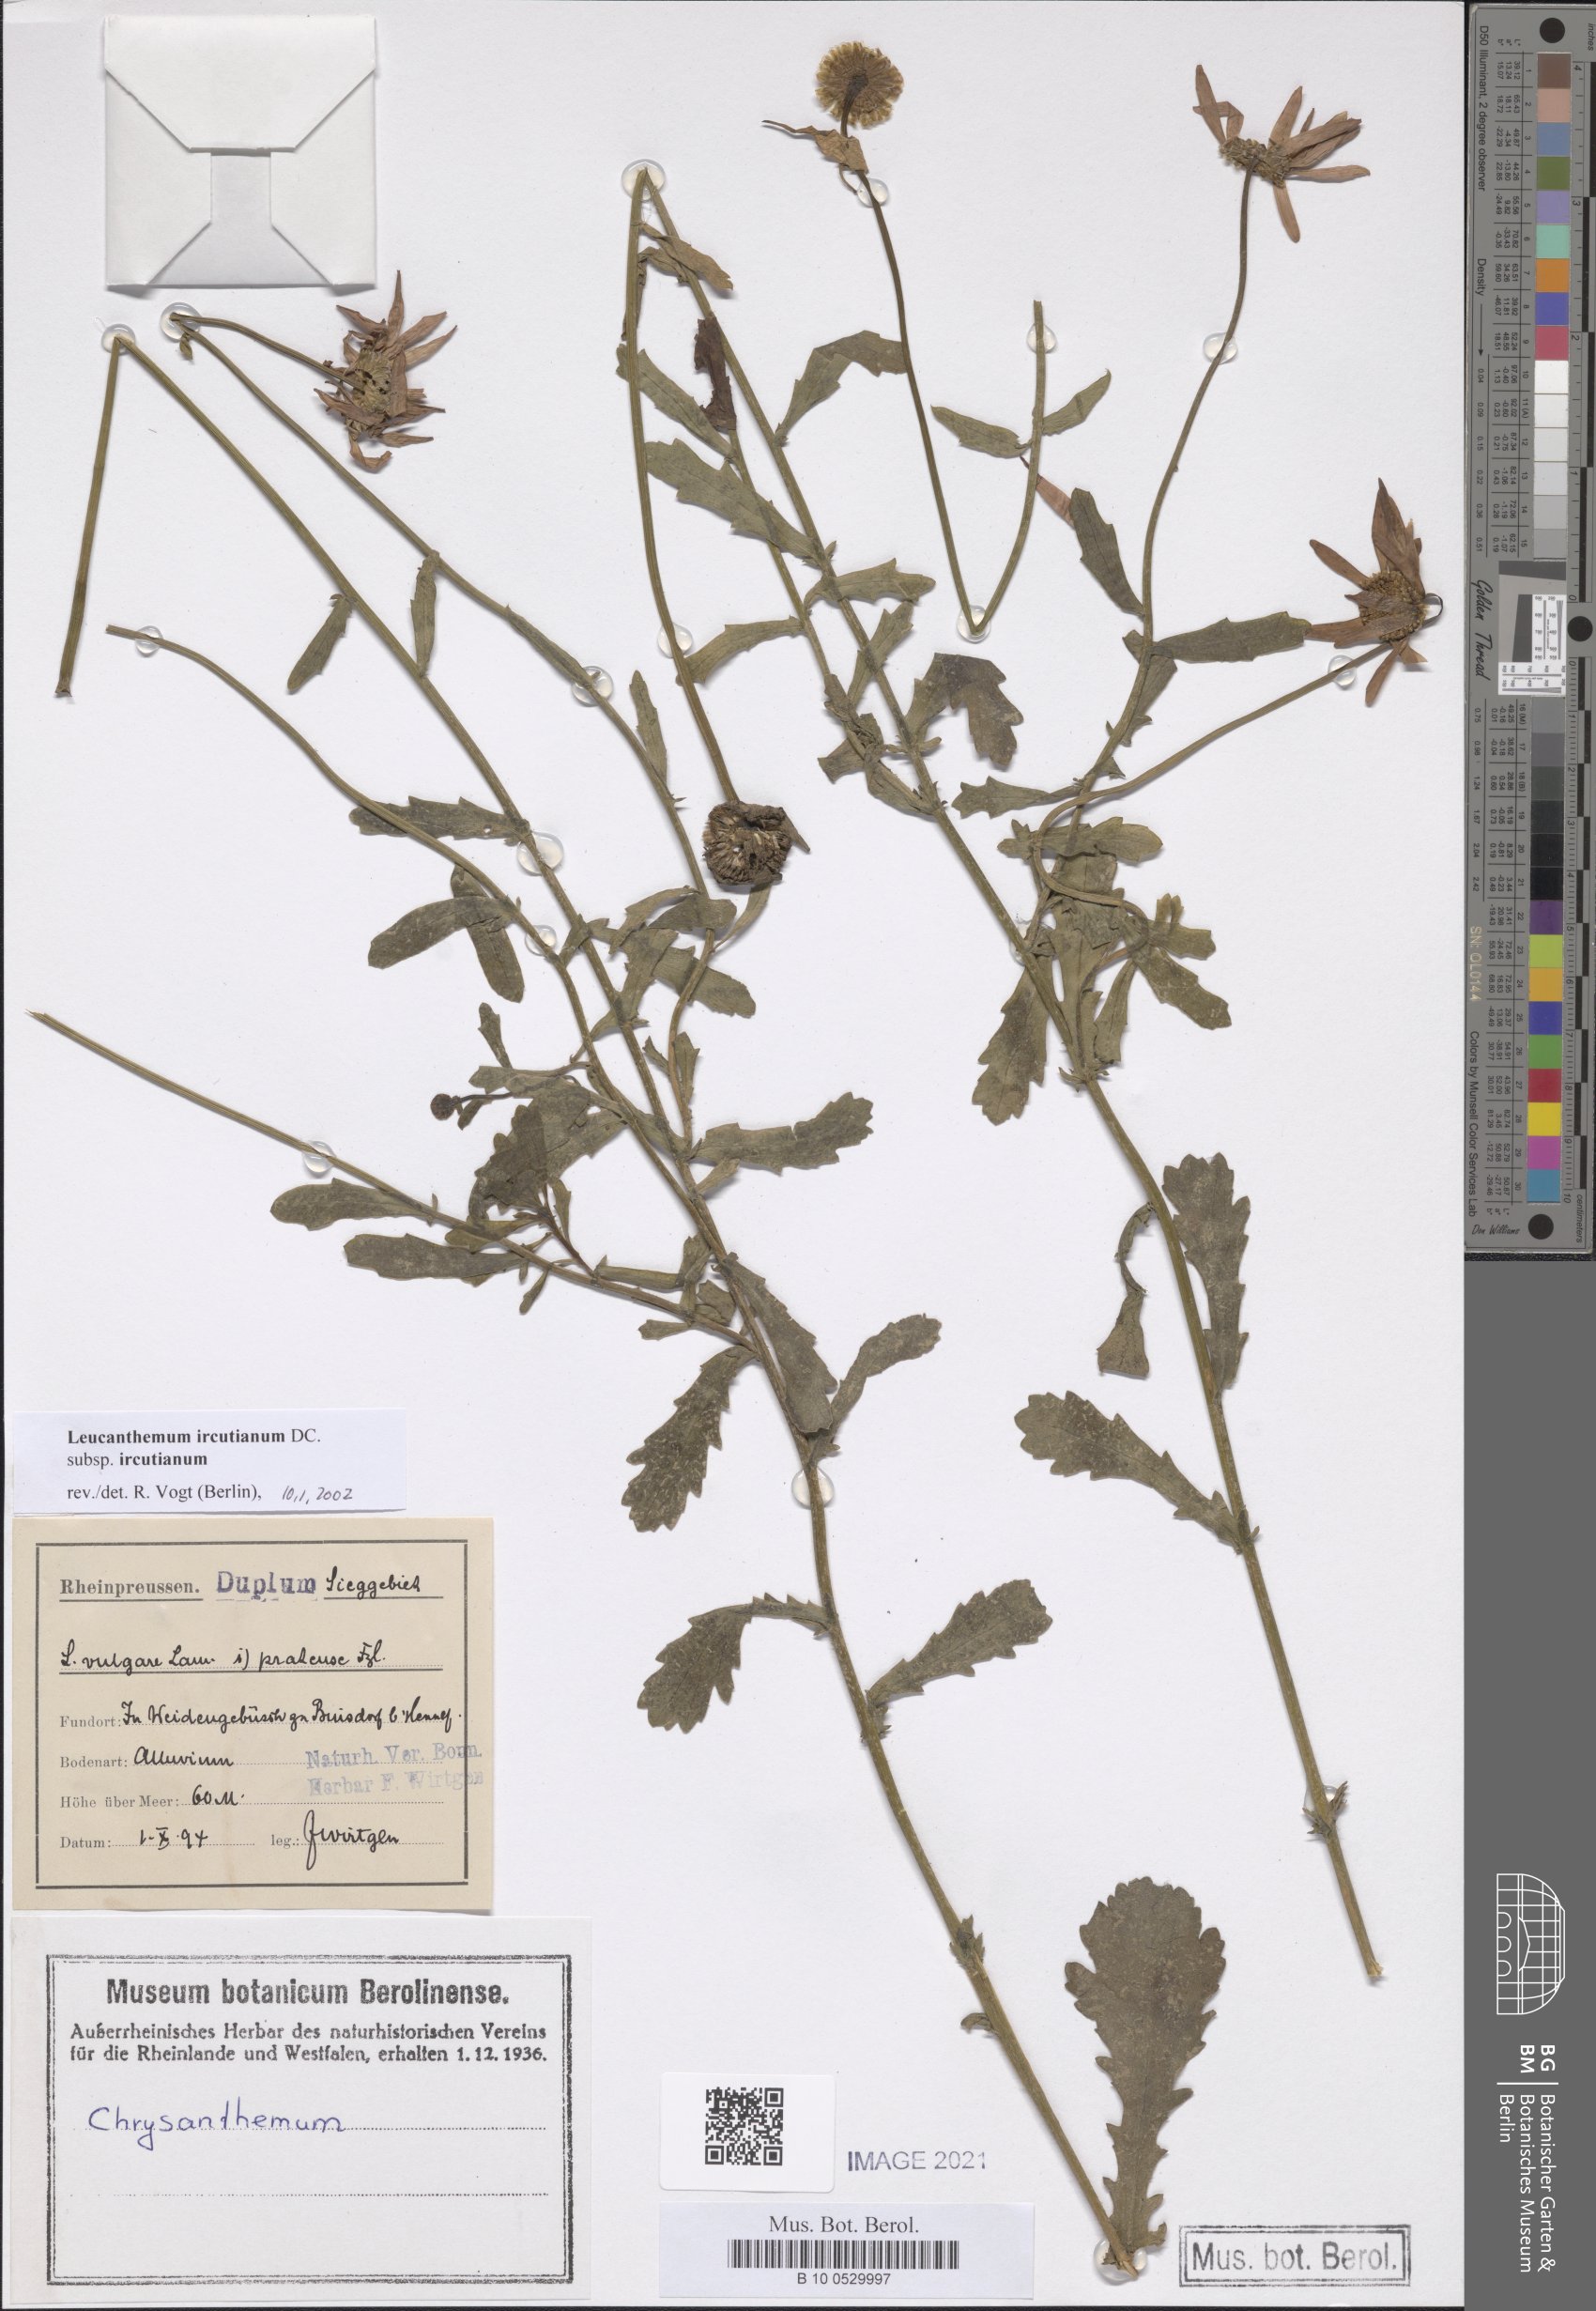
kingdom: Plantae
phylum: Tracheophyta
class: Magnoliopsida
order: Asterales
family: Asteraceae
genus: Leucanthemum
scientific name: Leucanthemum ircutianum
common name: Daisy
